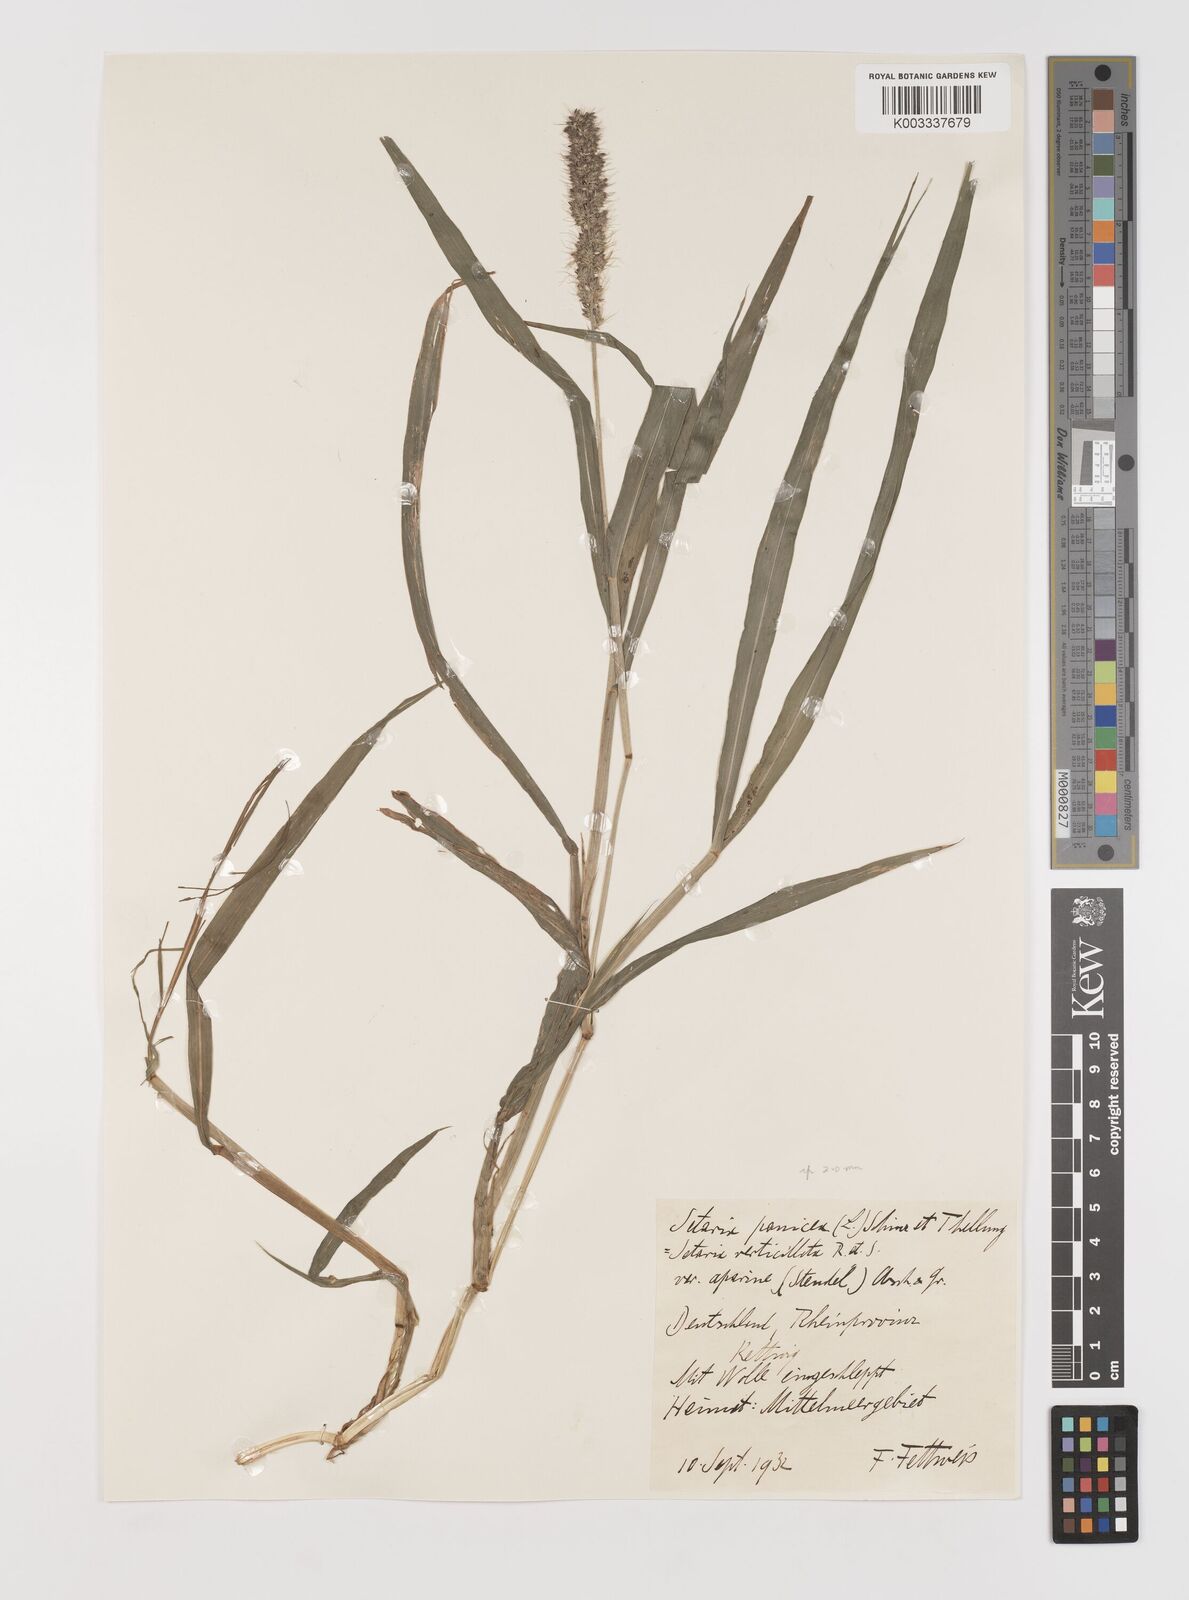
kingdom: Plantae
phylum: Tracheophyta
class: Liliopsida
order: Poales
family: Poaceae
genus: Setaria
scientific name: Setaria verticillata
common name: Hooked bristlegrass
